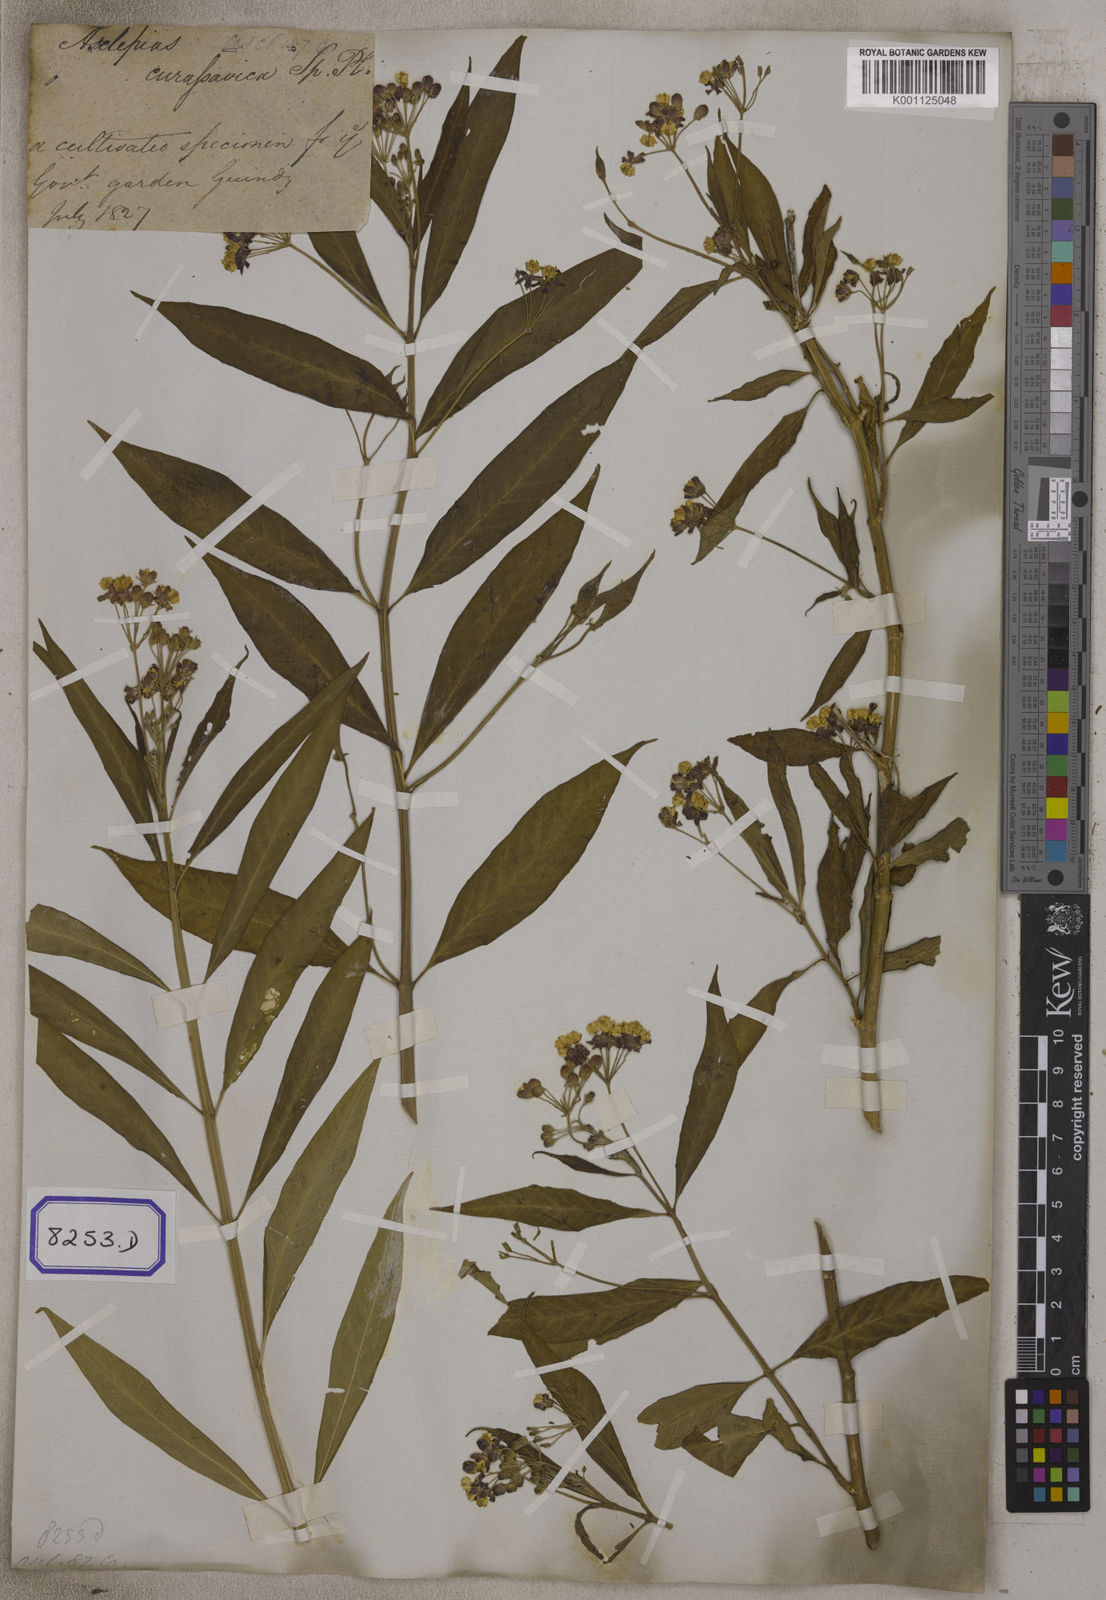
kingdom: Plantae
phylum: Tracheophyta
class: Magnoliopsida
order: Gentianales
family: Apocynaceae
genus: Asclepias
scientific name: Asclepias curassavica
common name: Bloodflower
